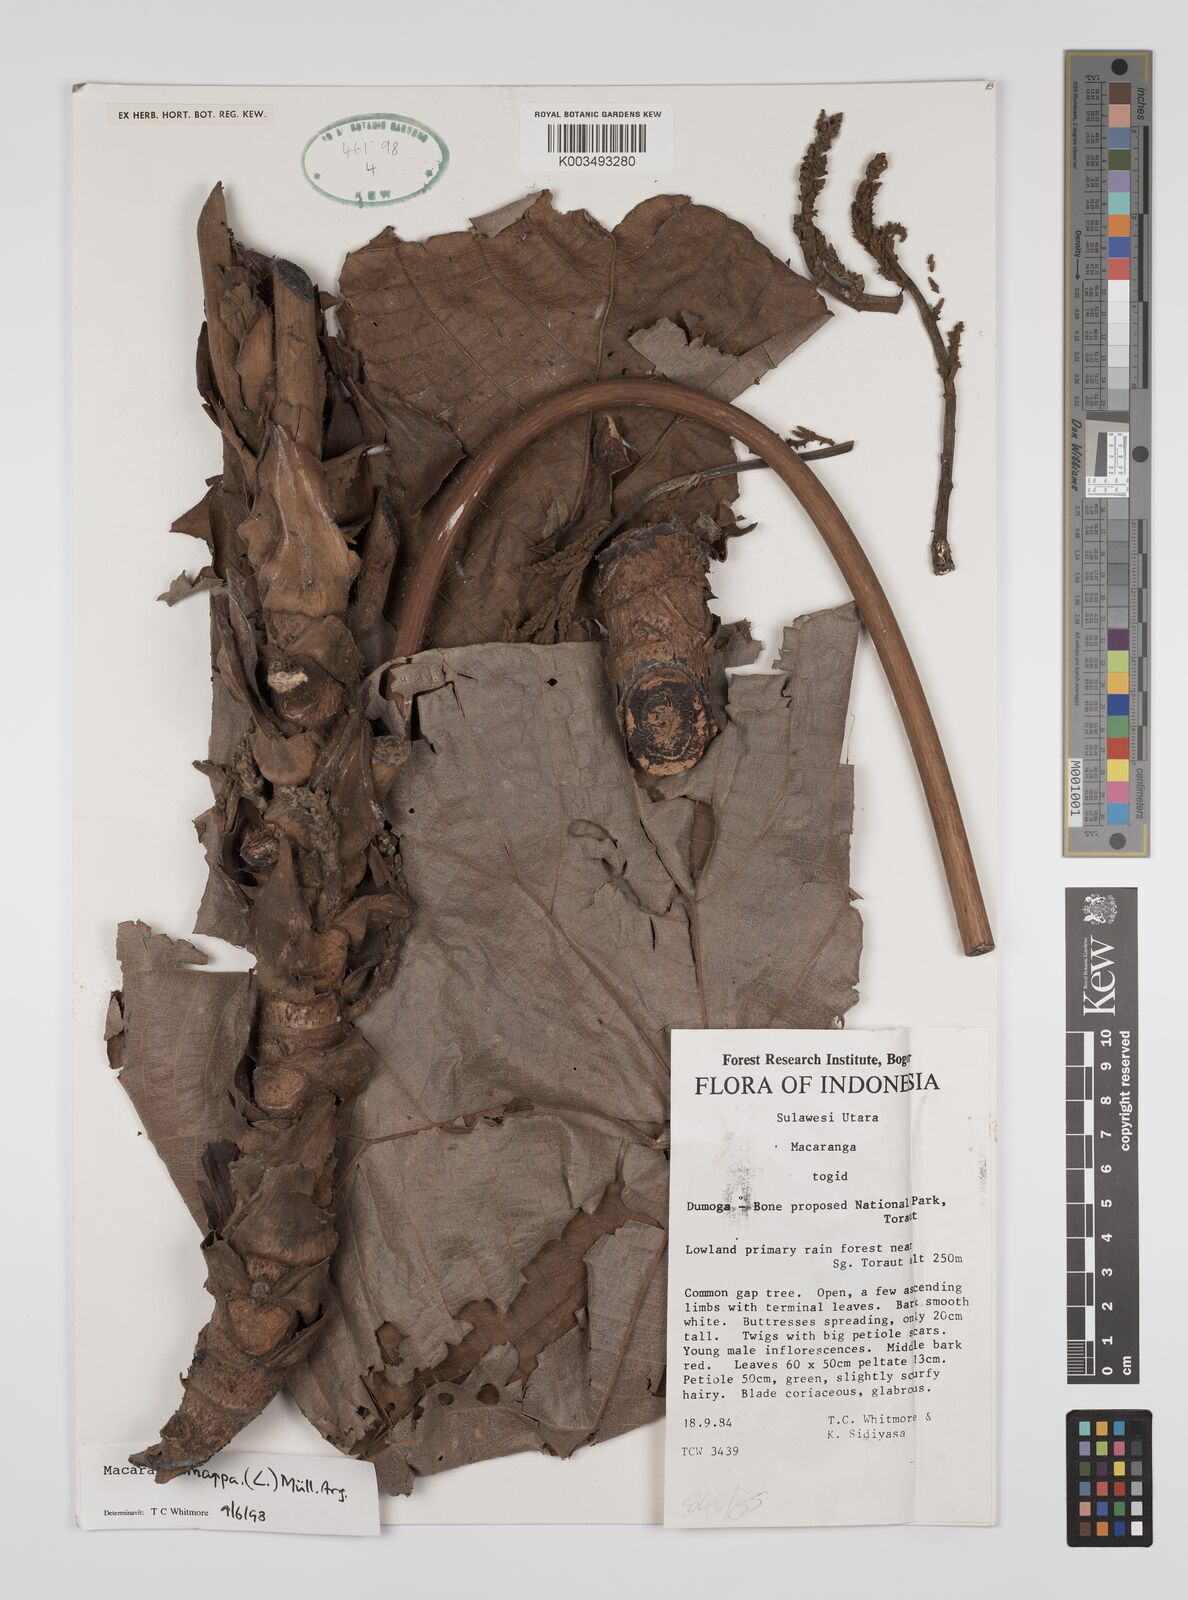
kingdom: Plantae
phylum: Tracheophyta
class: Magnoliopsida
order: Malpighiales
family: Euphorbiaceae
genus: Macaranga
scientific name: Macaranga mappa
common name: Pengua
